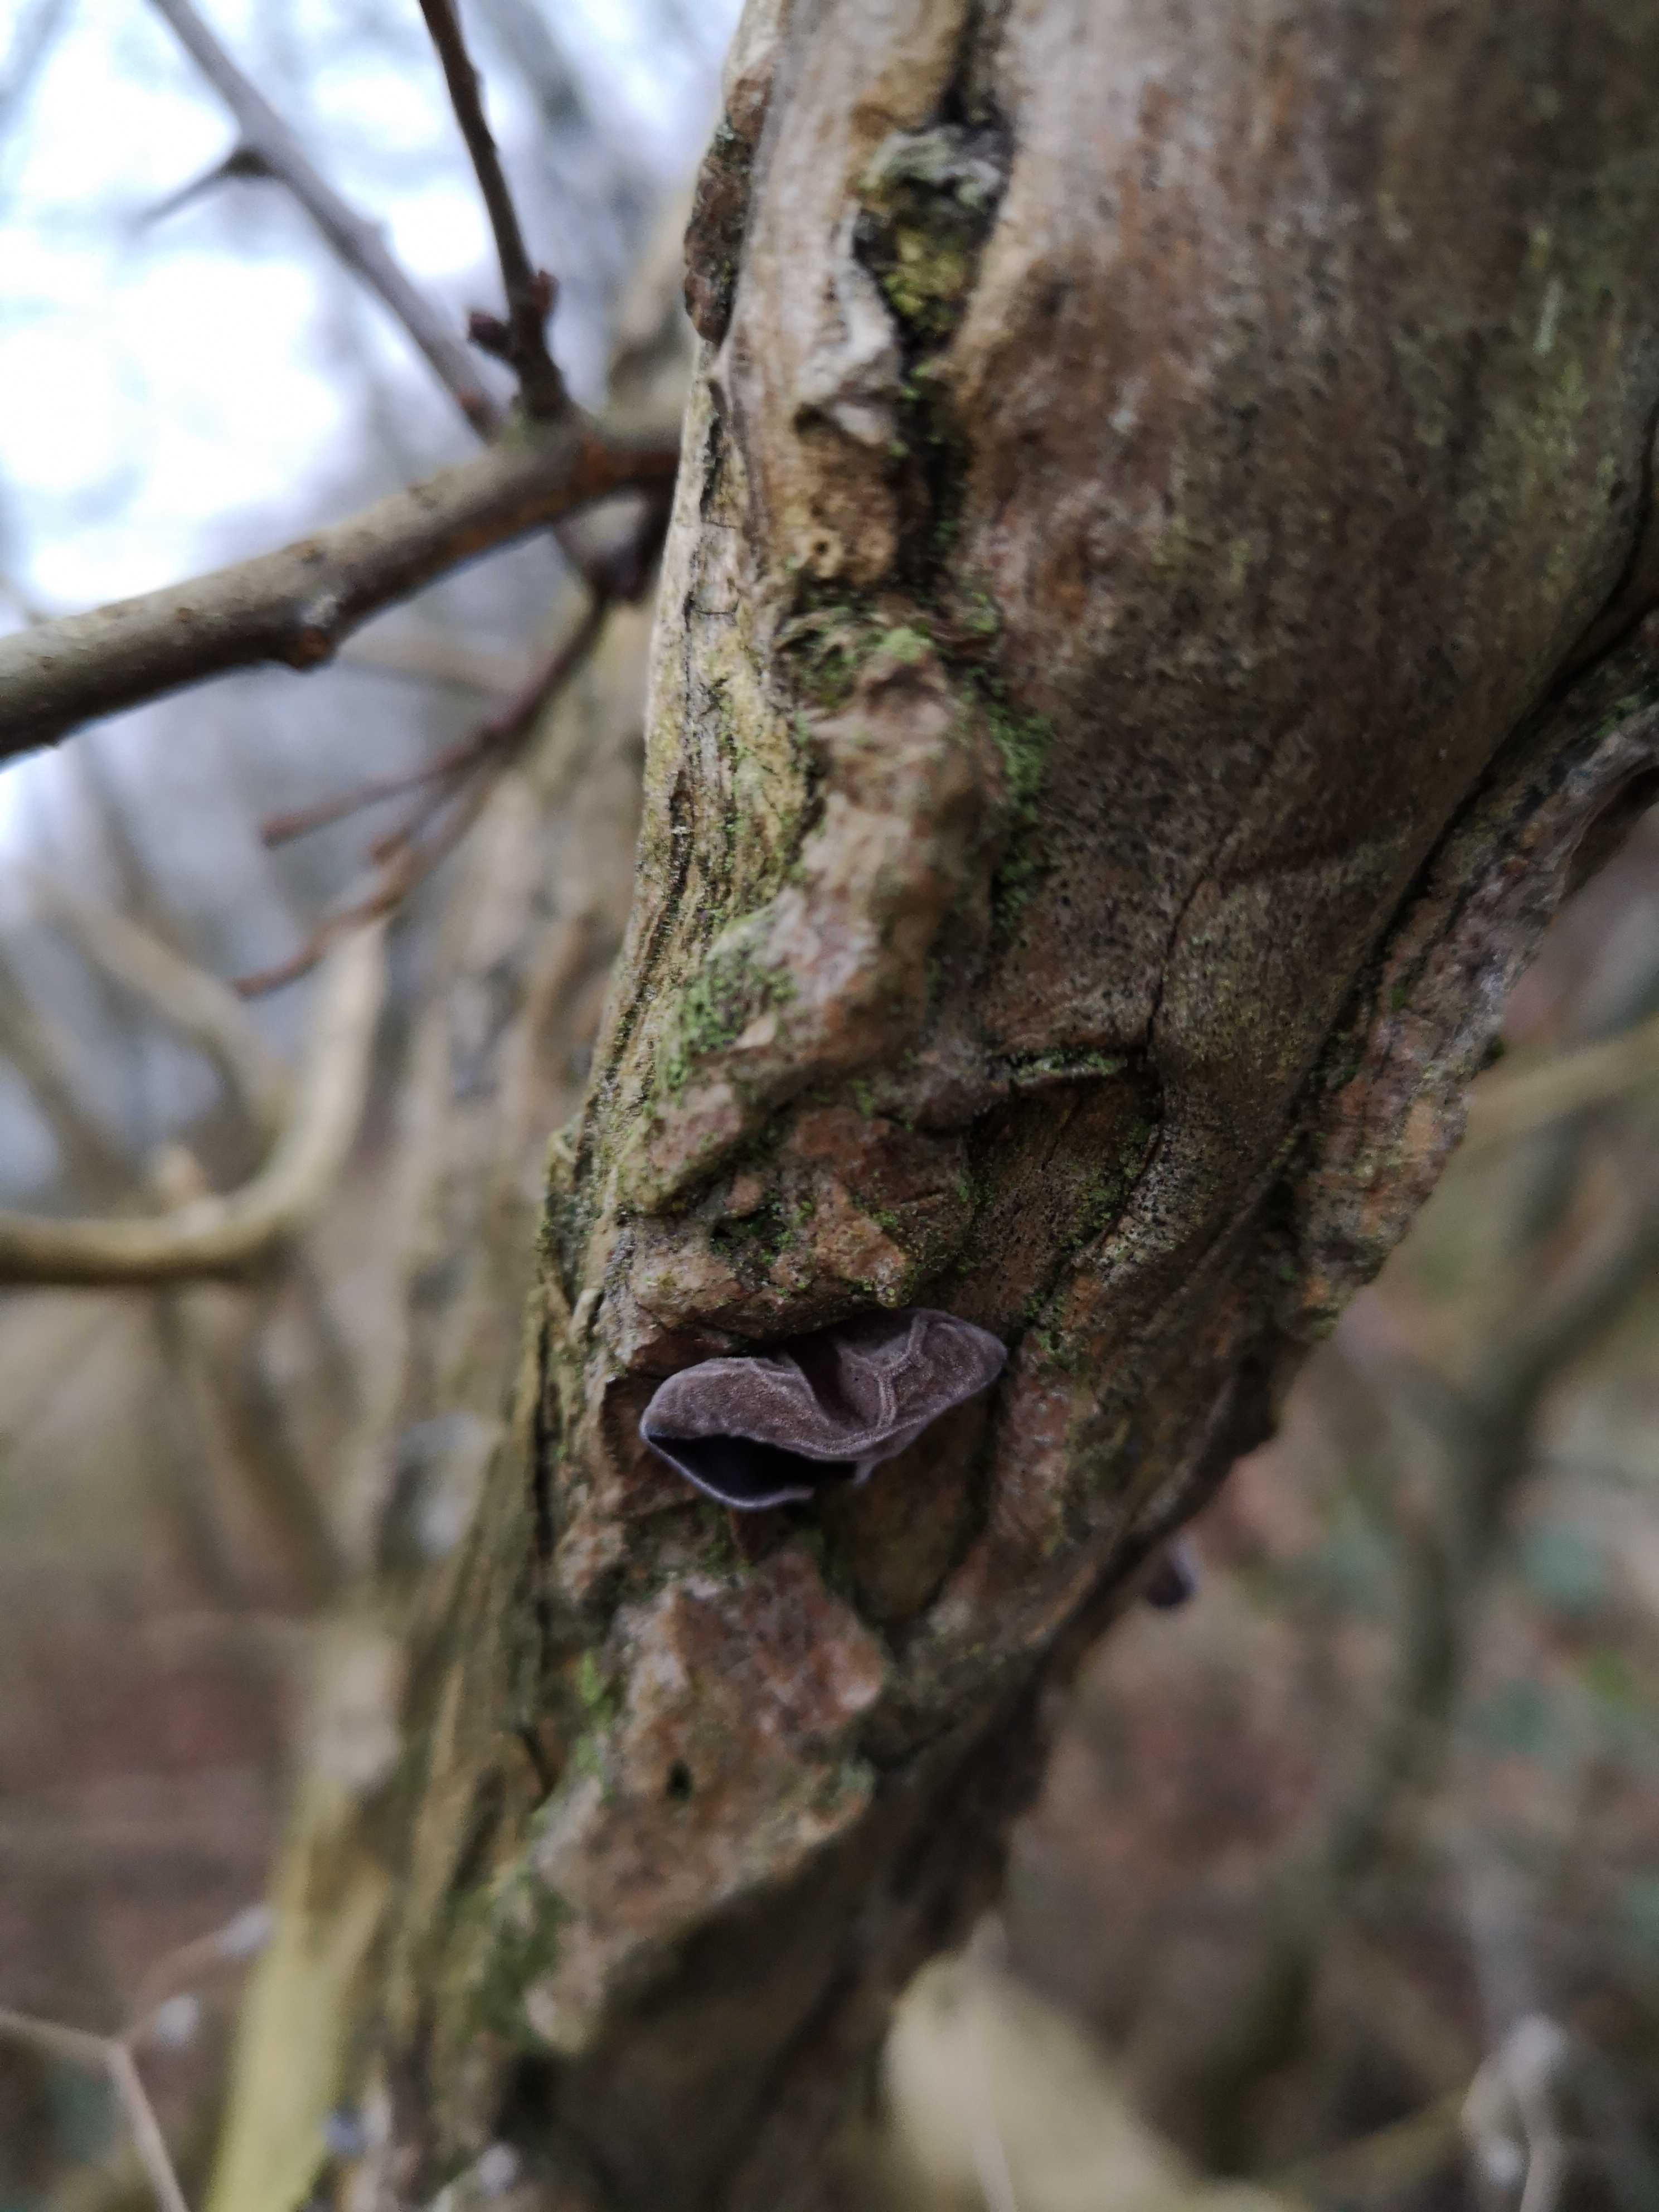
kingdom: Fungi
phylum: Basidiomycota
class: Agaricomycetes
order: Auriculariales
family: Auriculariaceae
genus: Auricularia
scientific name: Auricularia auricula-judae
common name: almindelig judasøre
